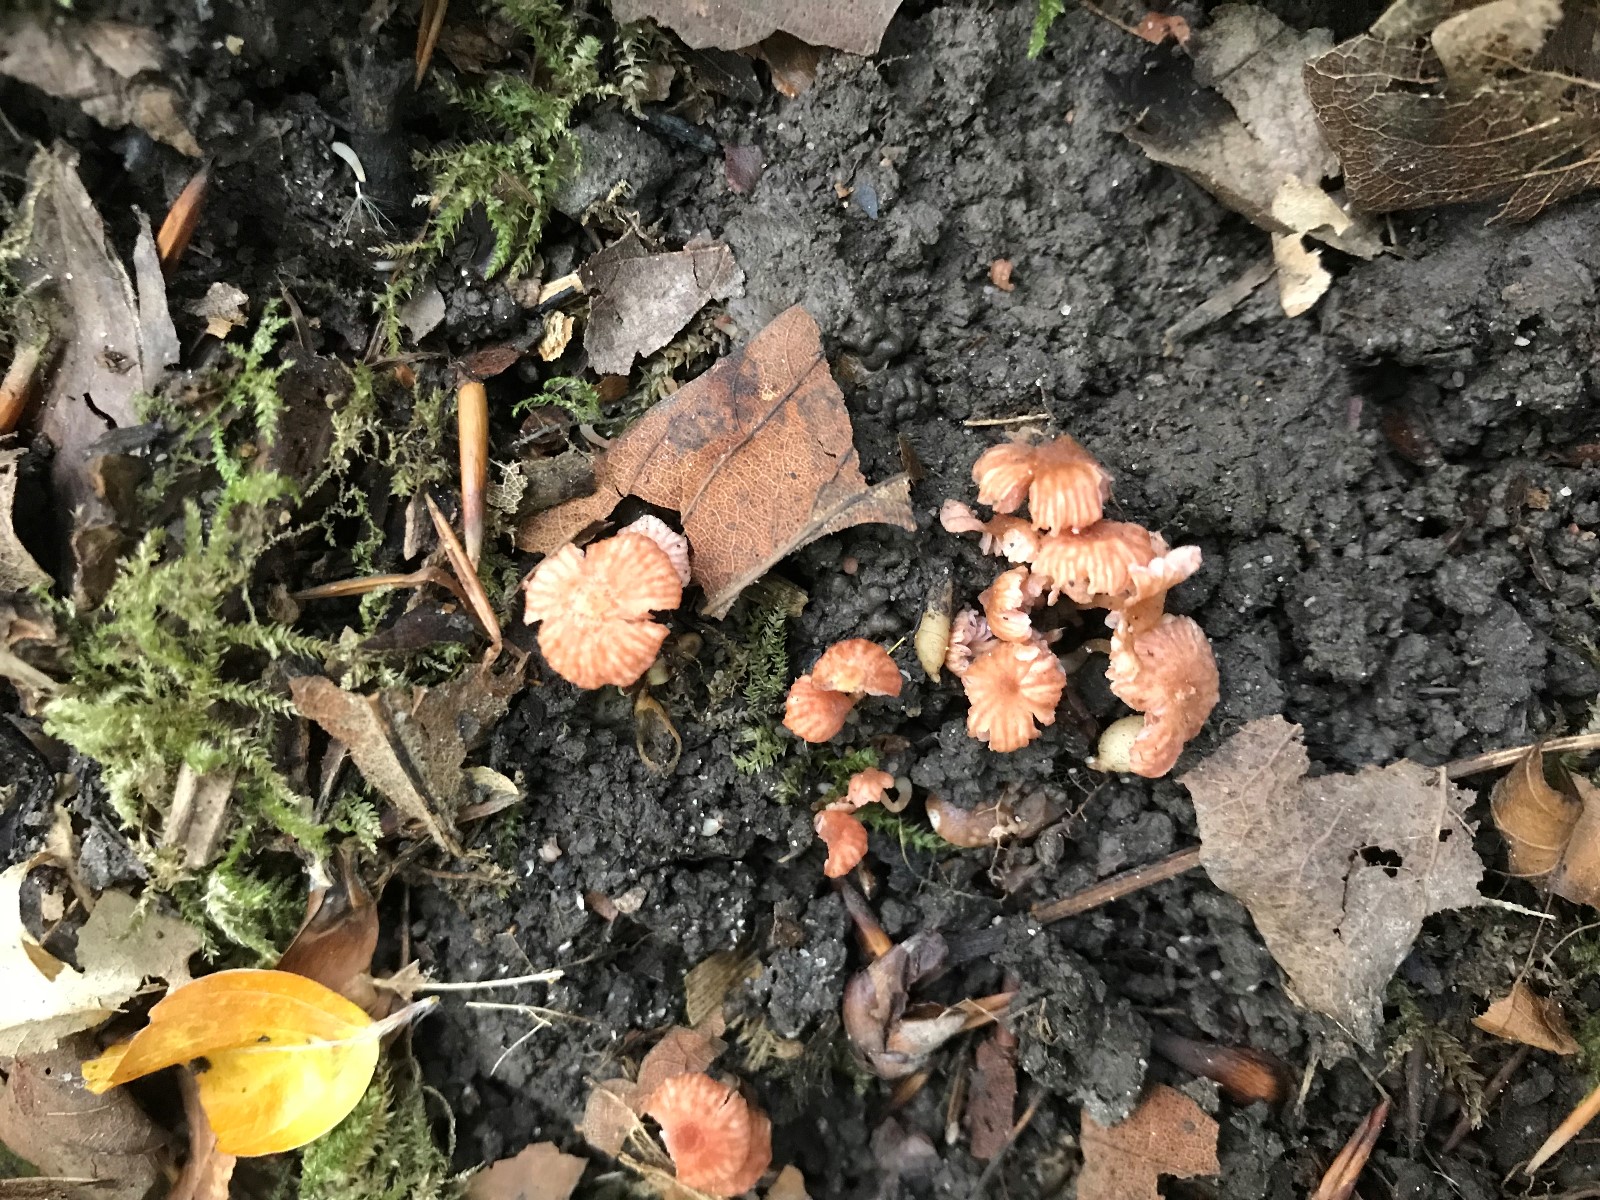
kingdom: Fungi
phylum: Basidiomycota
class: Agaricomycetes
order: Agaricales
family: Hydnangiaceae
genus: Laccaria
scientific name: Laccaria tortilis
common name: krybende ametysthat
